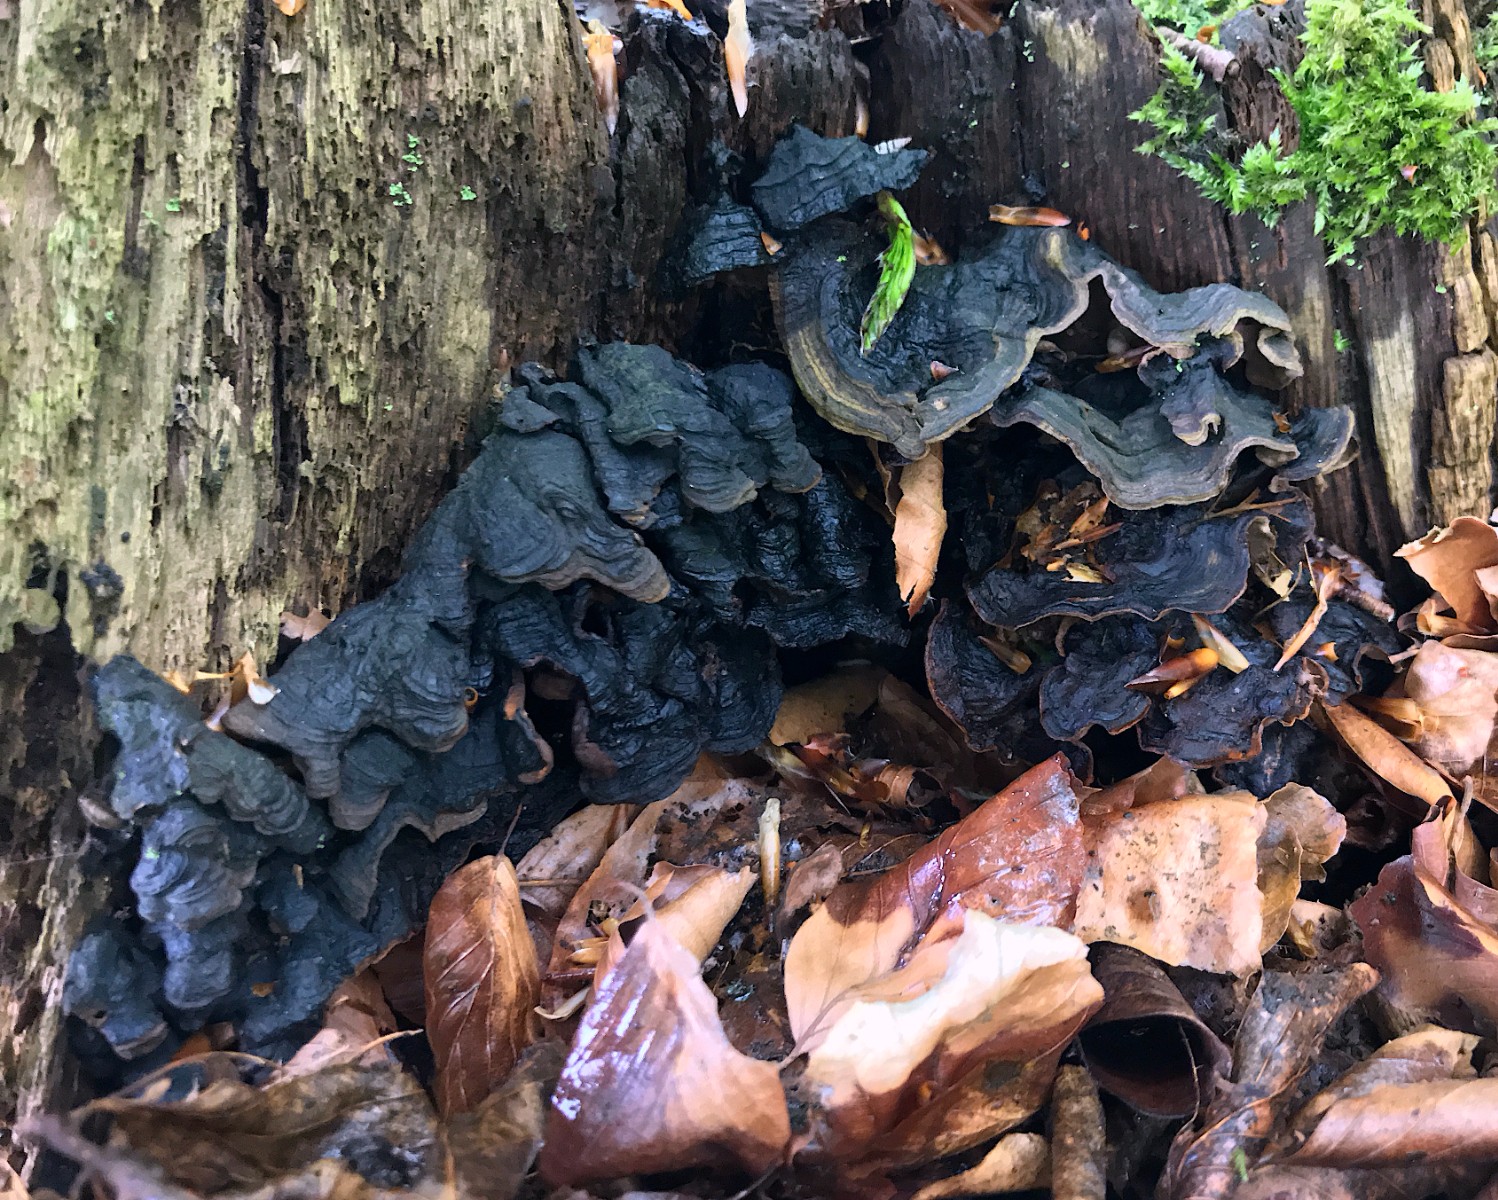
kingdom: Fungi
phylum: Basidiomycota
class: Agaricomycetes
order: Hymenochaetales
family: Hymenochaetaceae
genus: Hymenochaete
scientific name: Hymenochaete rubiginosa
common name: stiv ruslædersvamp
